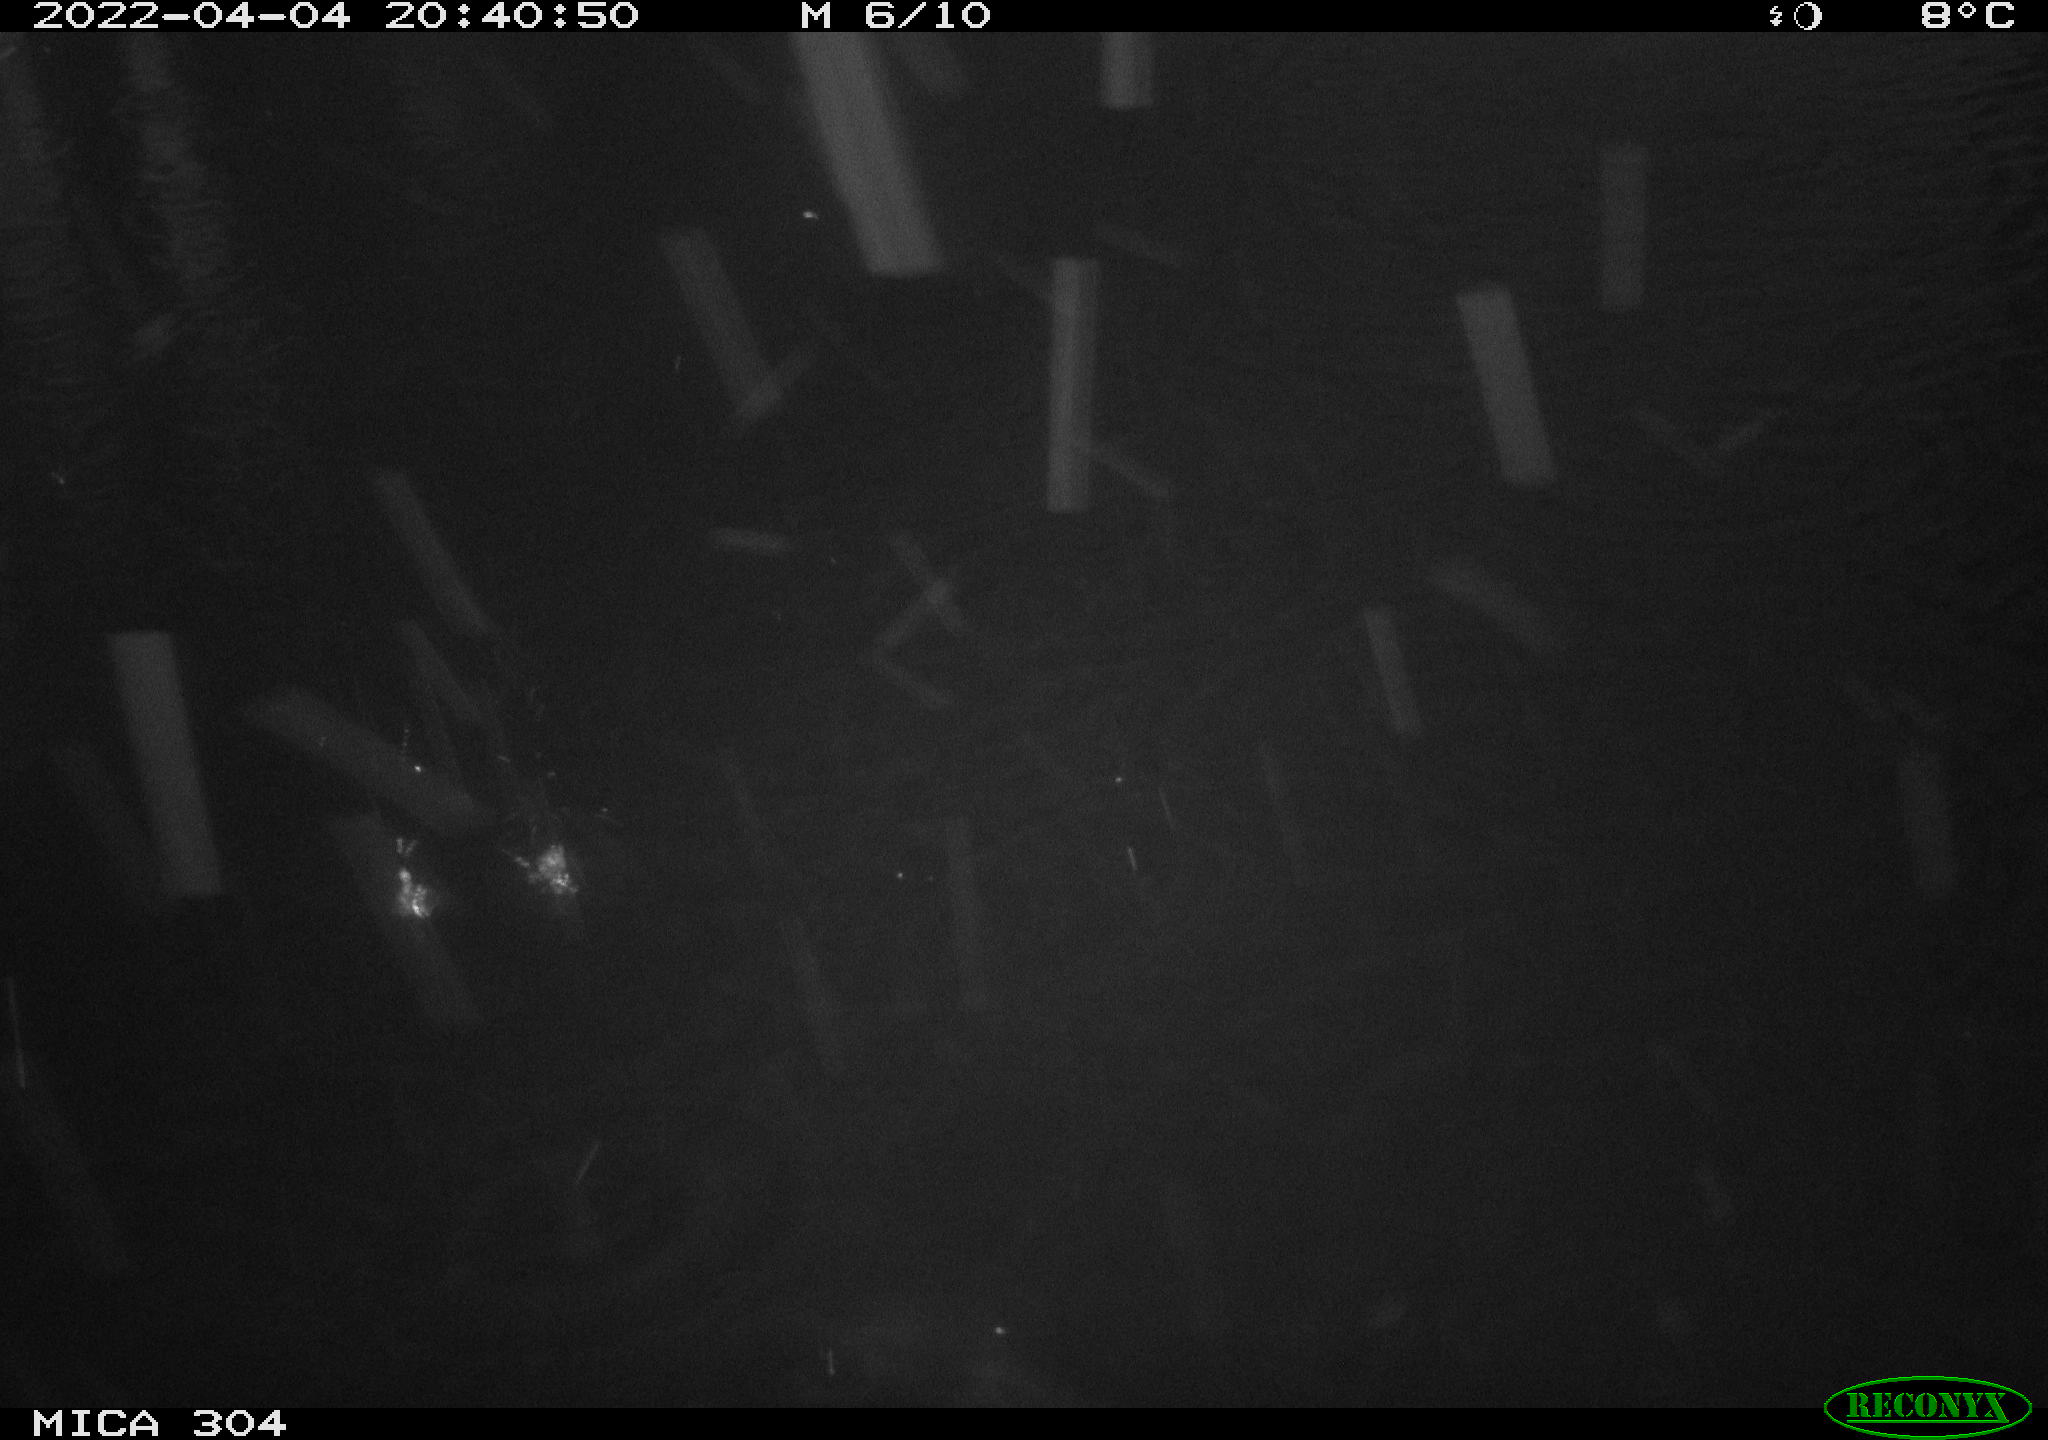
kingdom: Animalia
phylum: Chordata
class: Mammalia
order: Rodentia
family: Cricetidae
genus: Ondatra
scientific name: Ondatra zibethicus
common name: Muskrat
